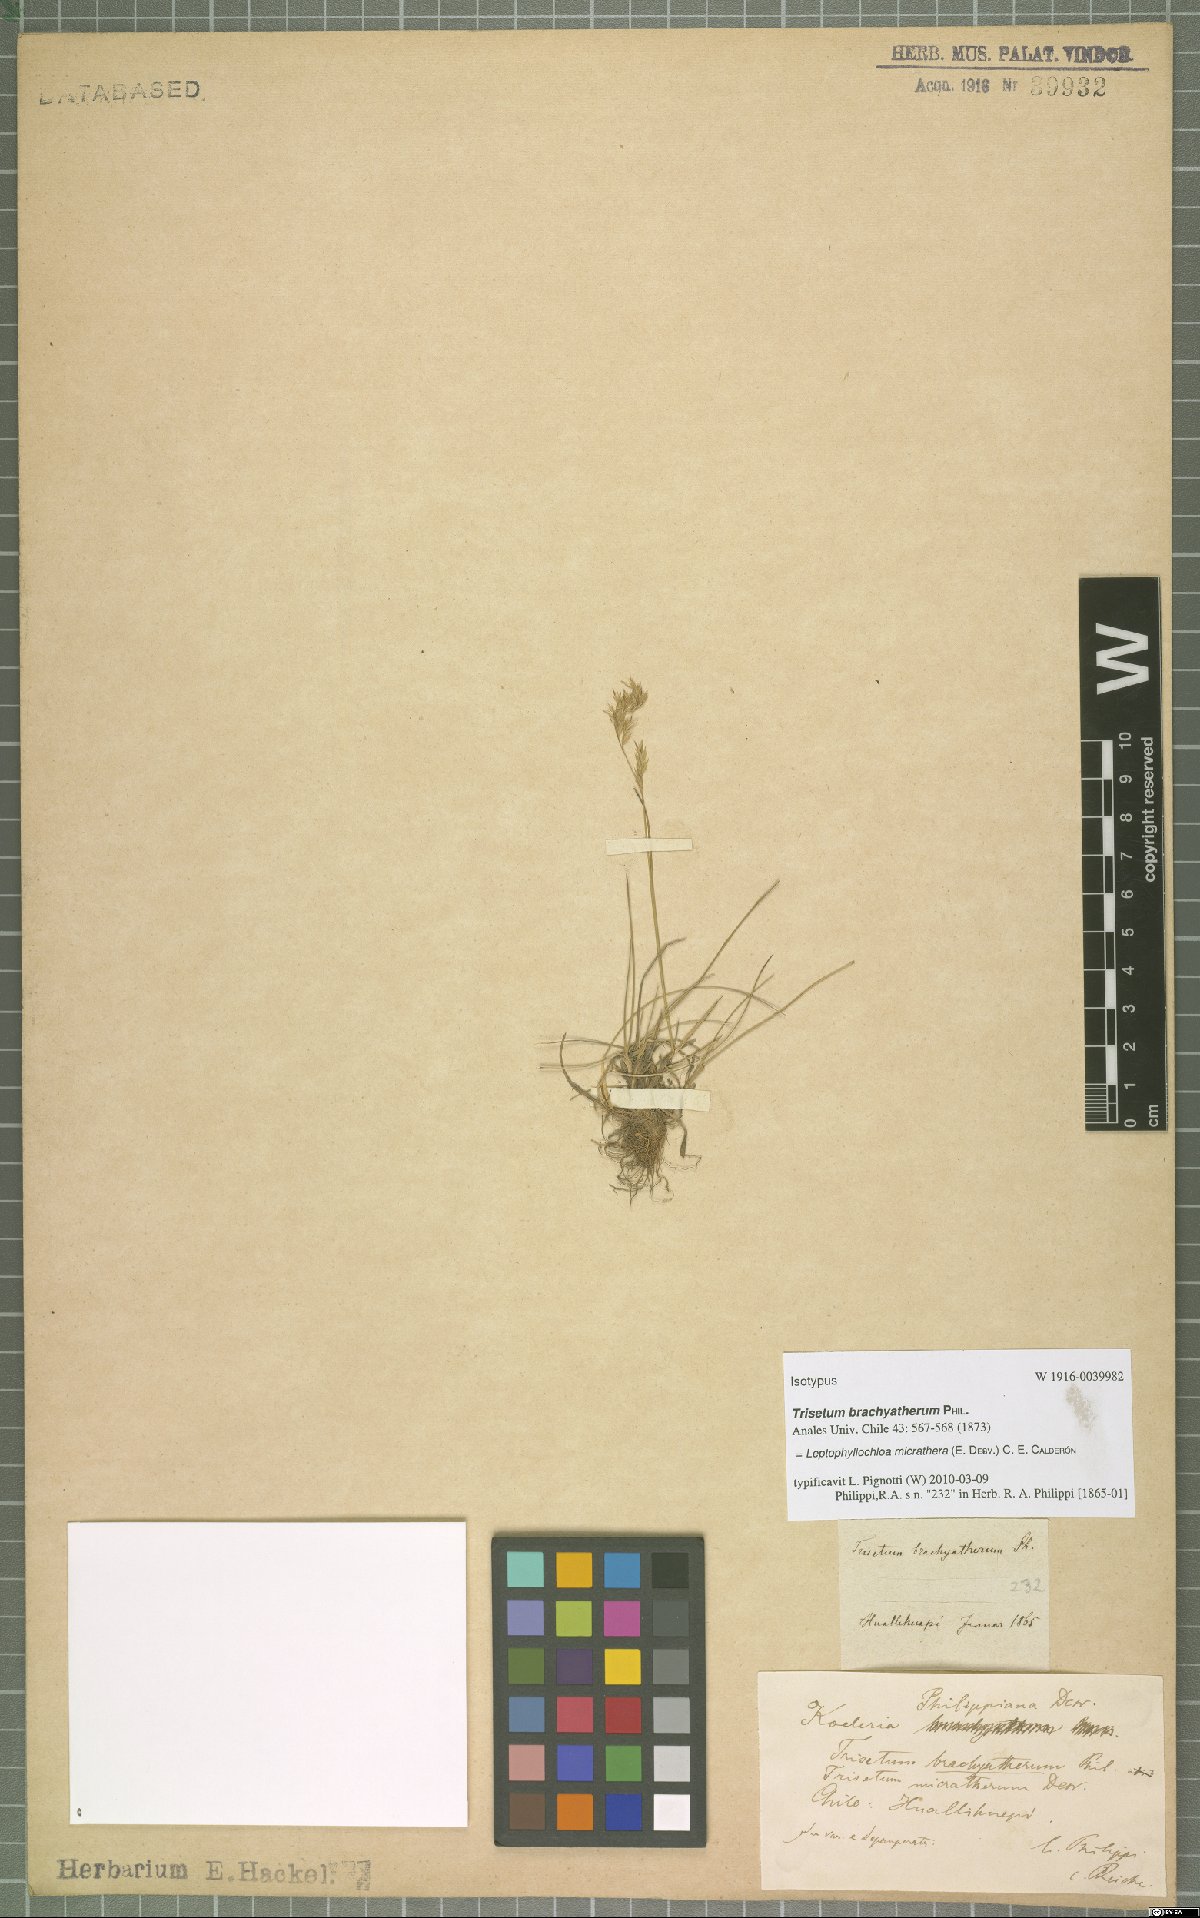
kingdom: Plantae
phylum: Tracheophyta
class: Liliopsida
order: Poales
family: Poaceae
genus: Cinnagrostis
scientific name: Cinnagrostis micrathera
